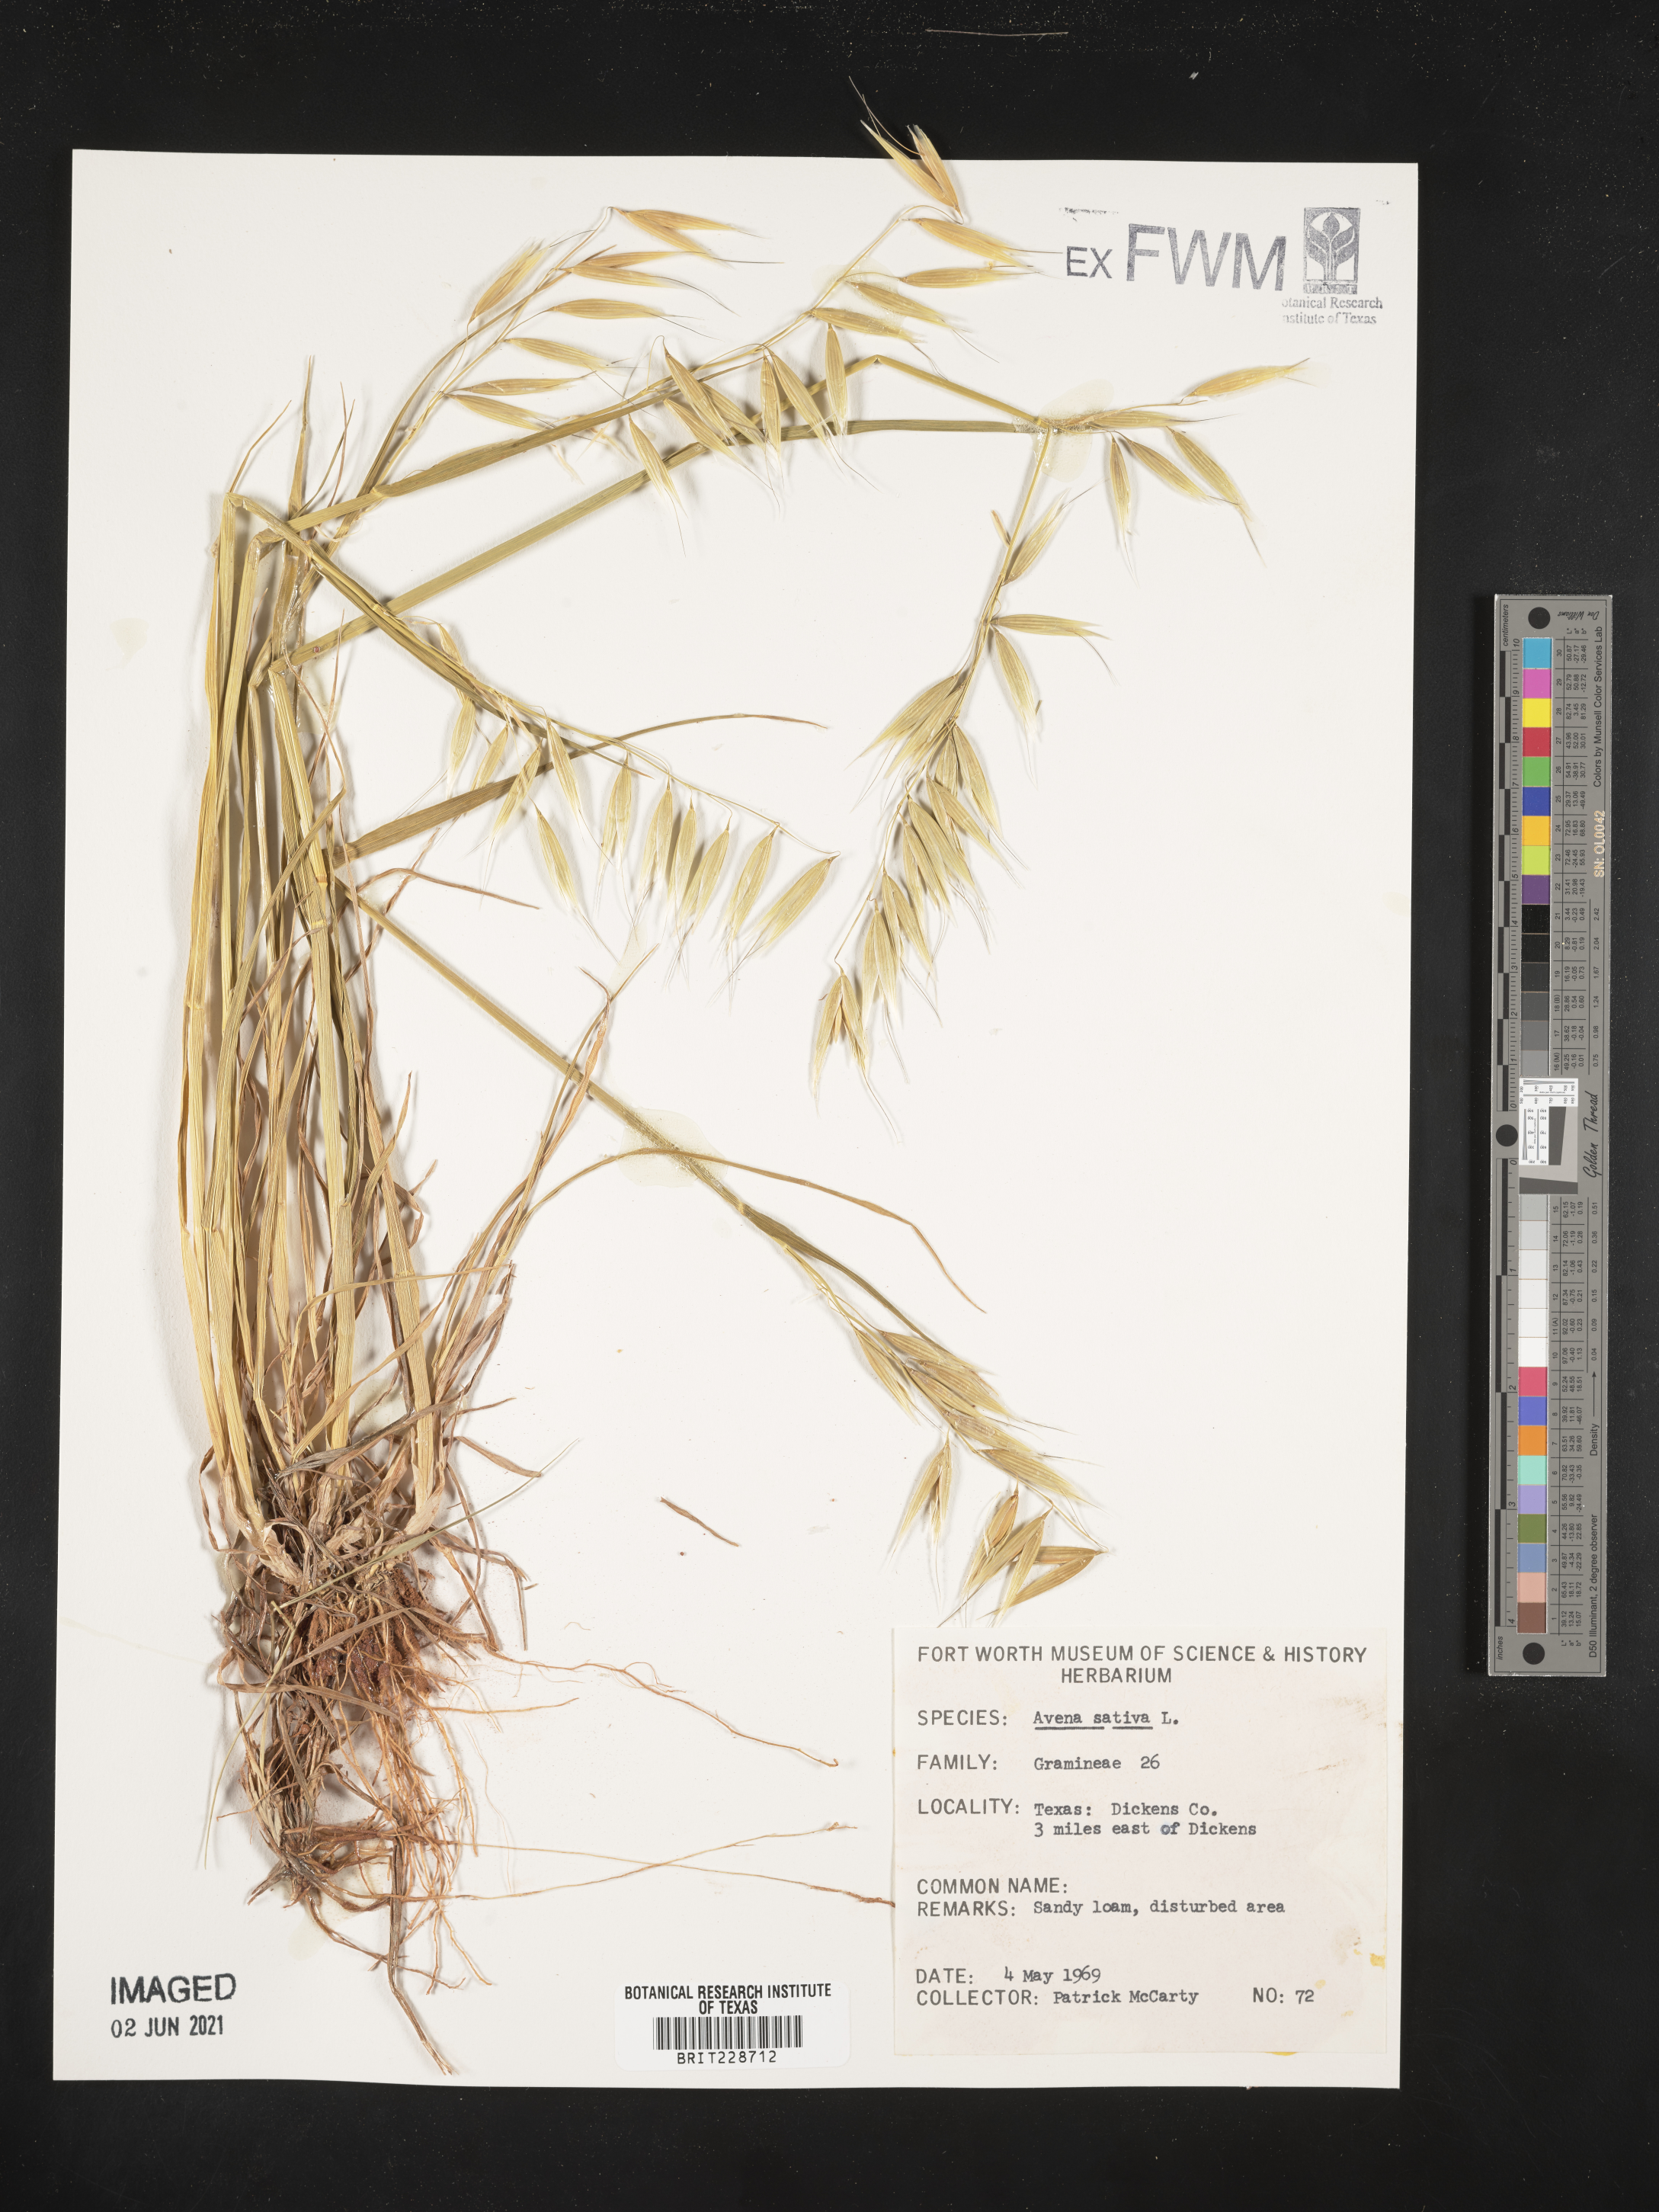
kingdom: Plantae
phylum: Tracheophyta
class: Liliopsida
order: Poales
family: Poaceae
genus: Avena
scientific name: Avena sativa
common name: Oat
